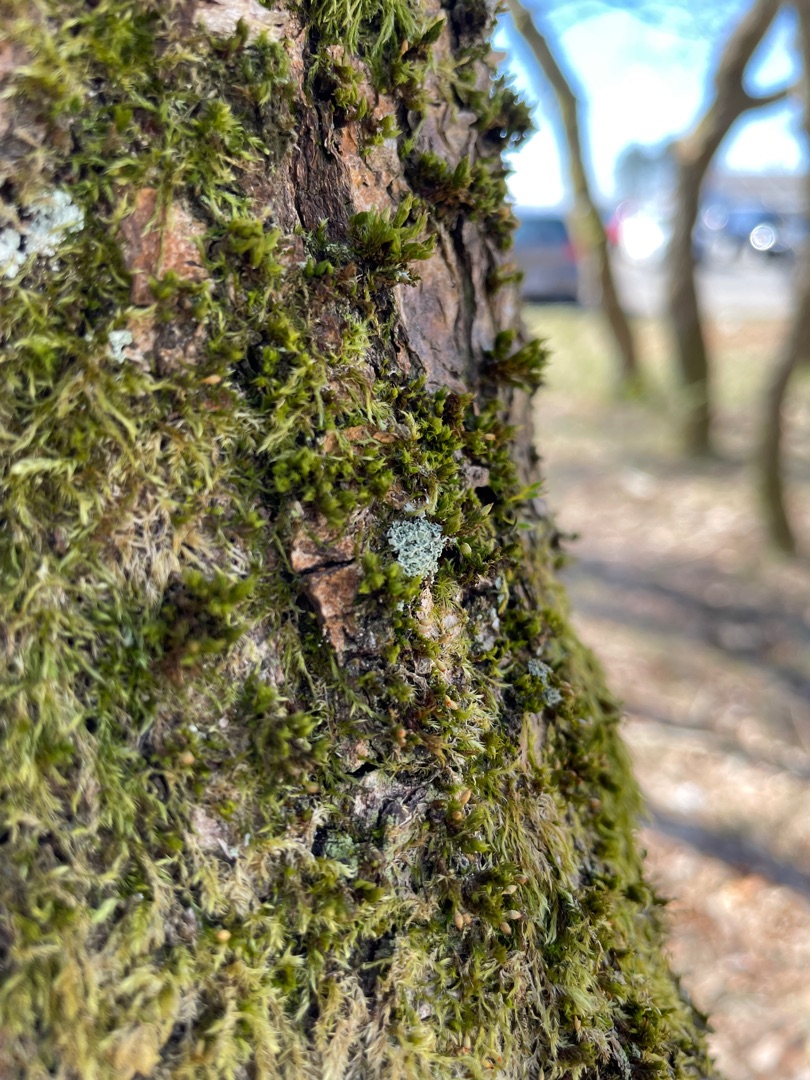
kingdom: Fungi
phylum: Ascomycota
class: Lecanoromycetes
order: Lecanorales
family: Cladoniaceae
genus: Cladonia
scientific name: Cladonia
